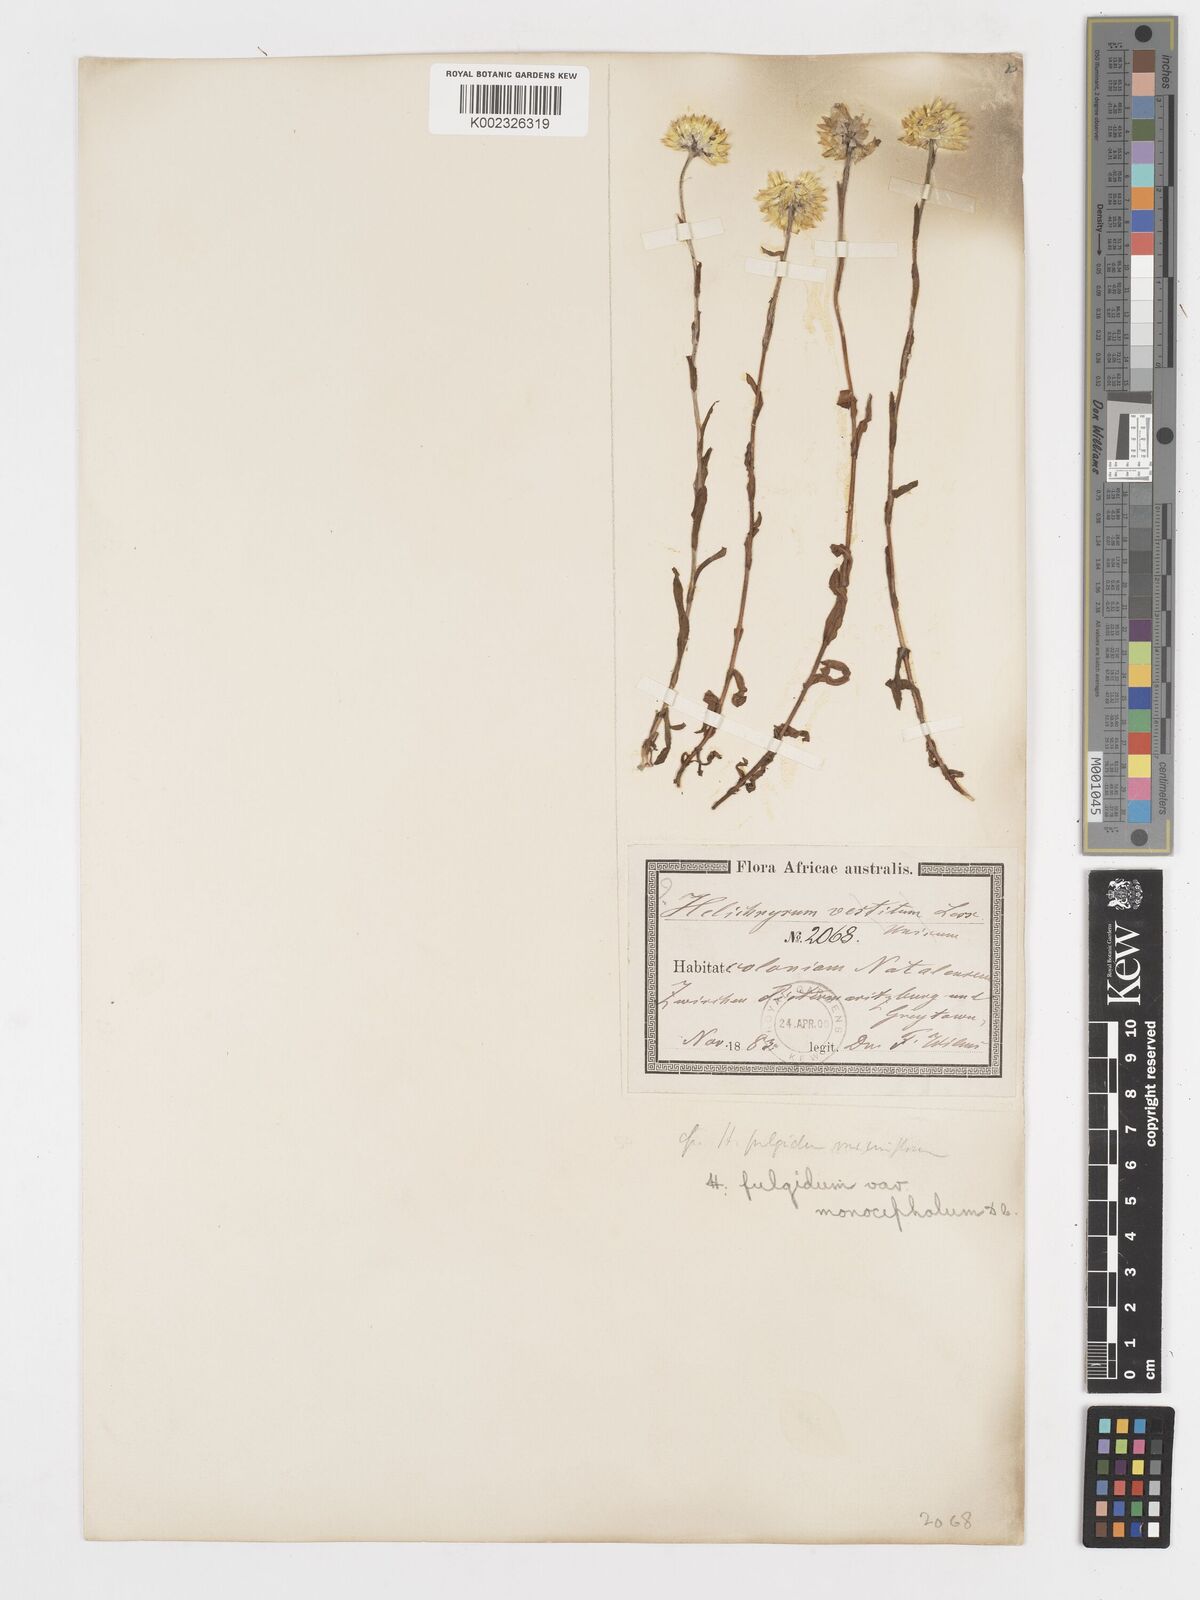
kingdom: Plantae
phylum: Tracheophyta
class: Magnoliopsida
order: Asterales
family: Asteraceae
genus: Helichrysum
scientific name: Helichrysum aureum
